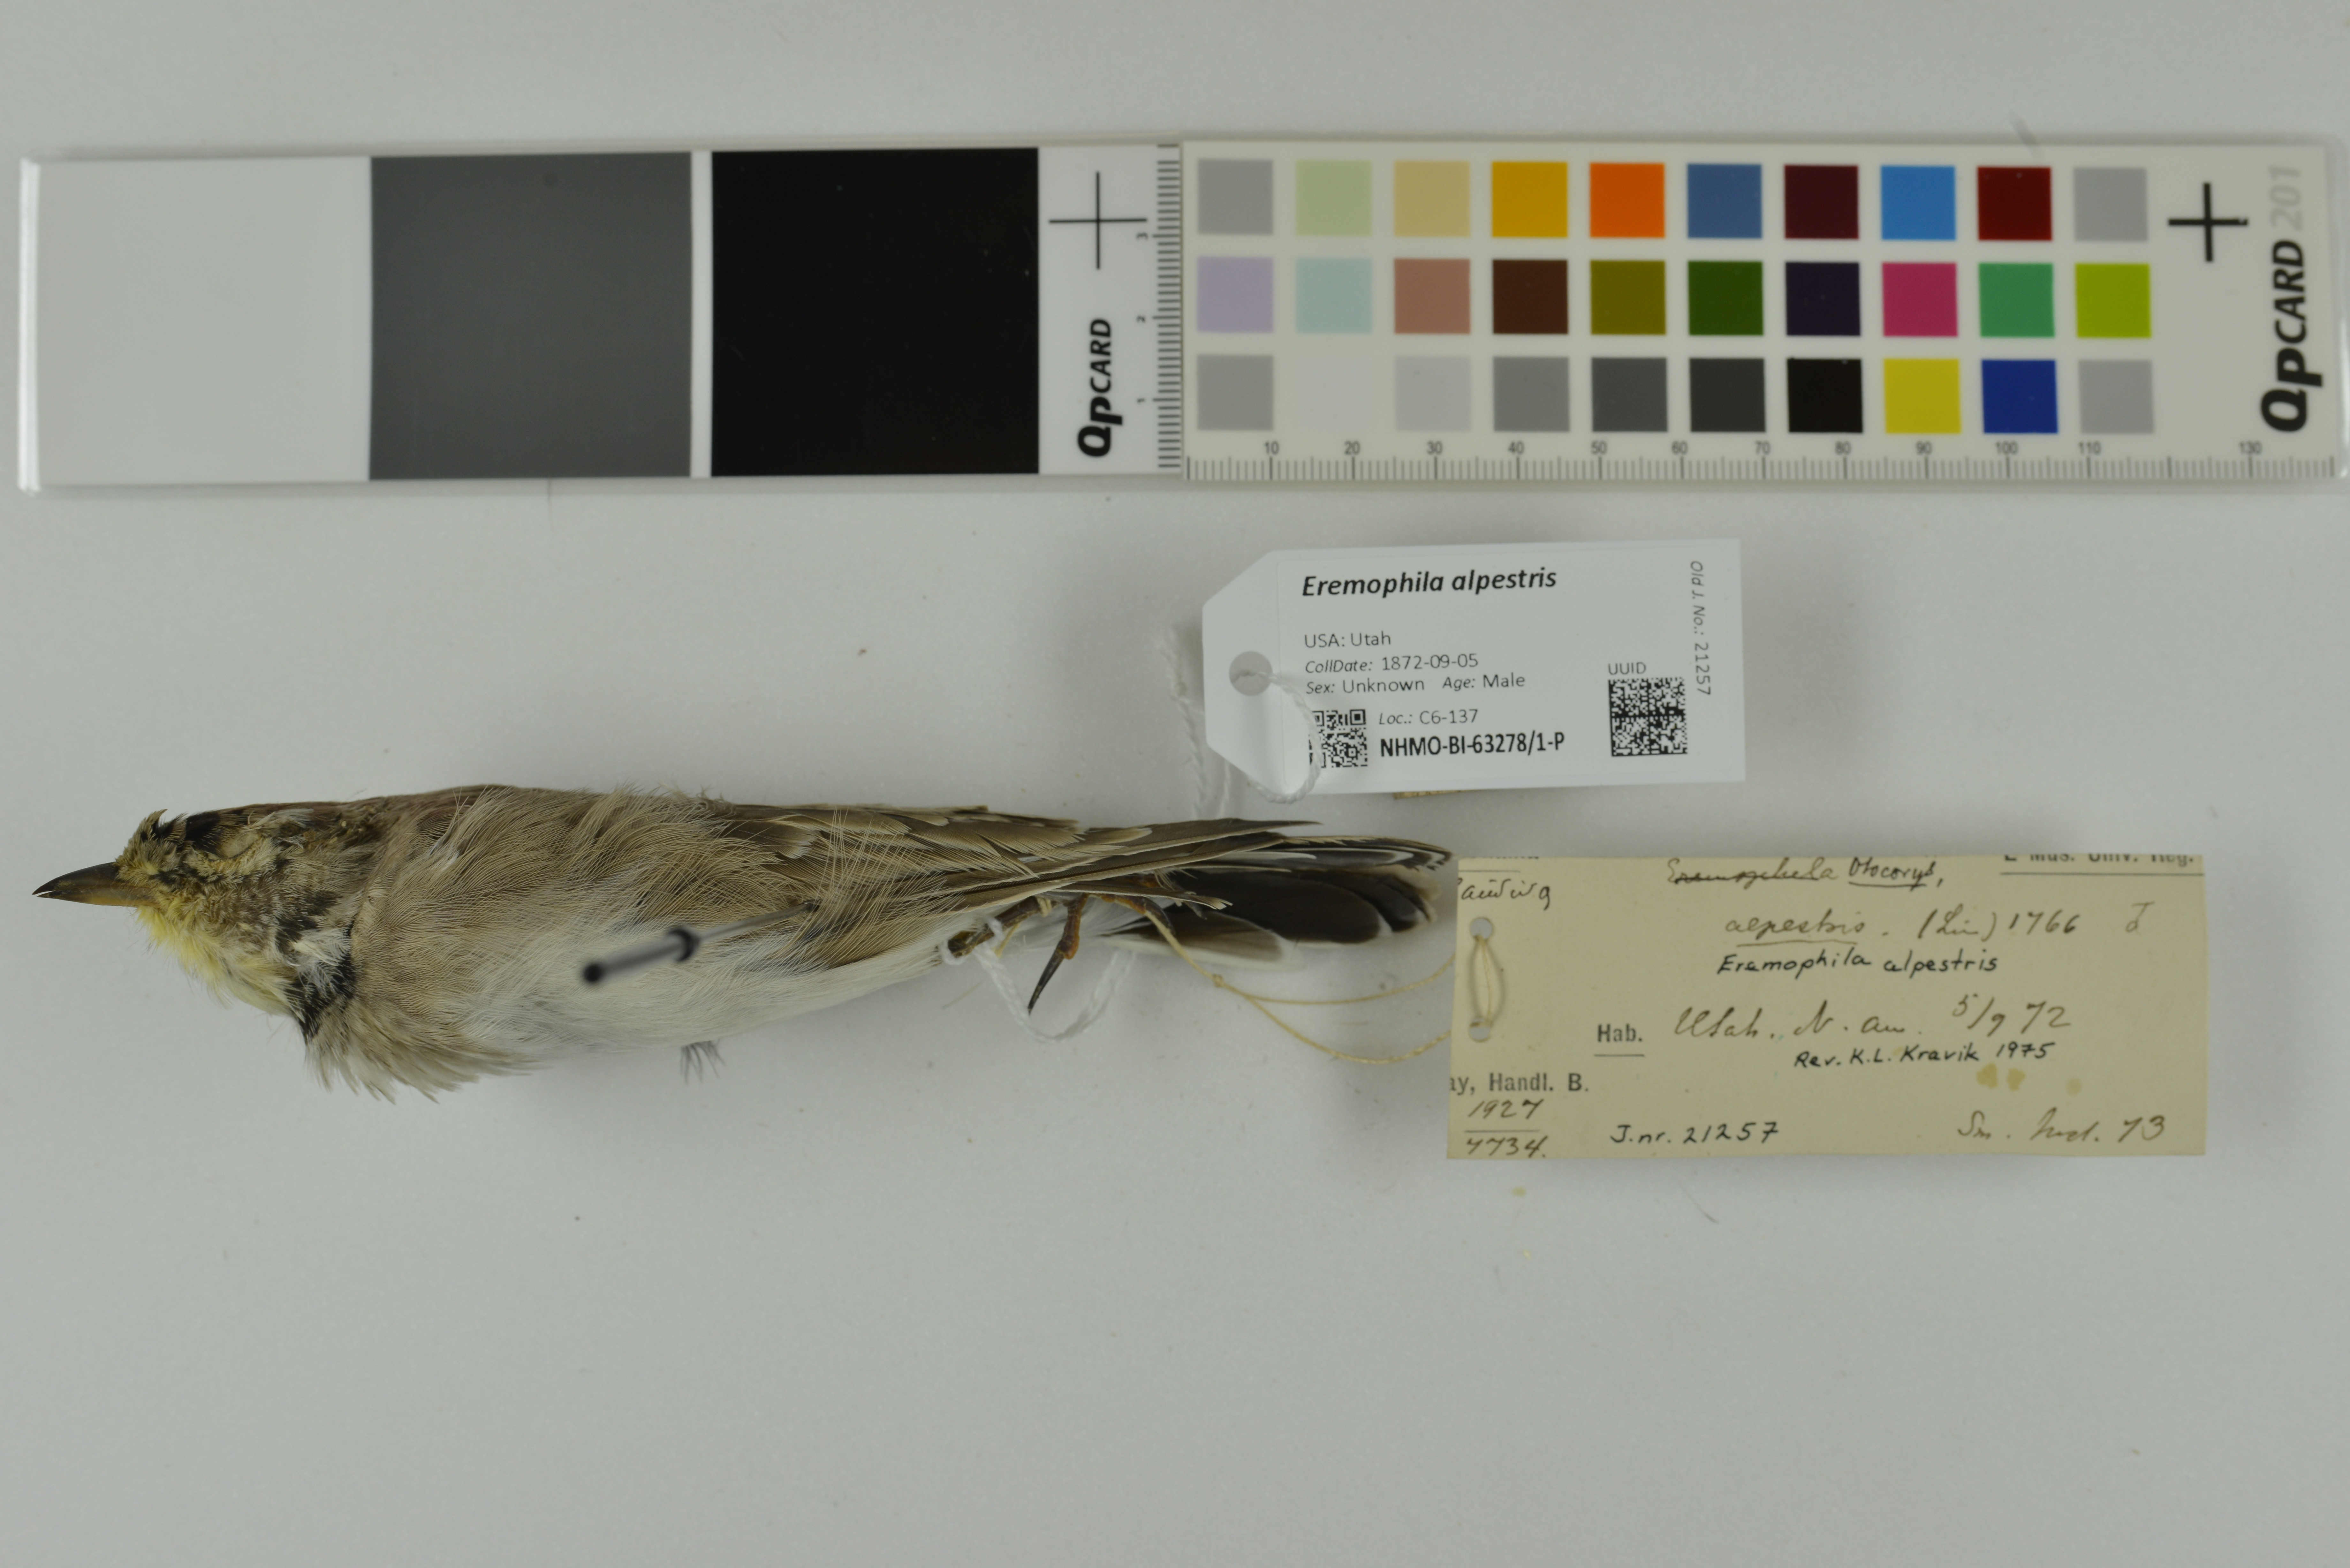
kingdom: Animalia
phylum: Chordata
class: Aves
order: Passeriformes
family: Alaudidae
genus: Eremophila
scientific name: Eremophila alpestris
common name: Horned lark
